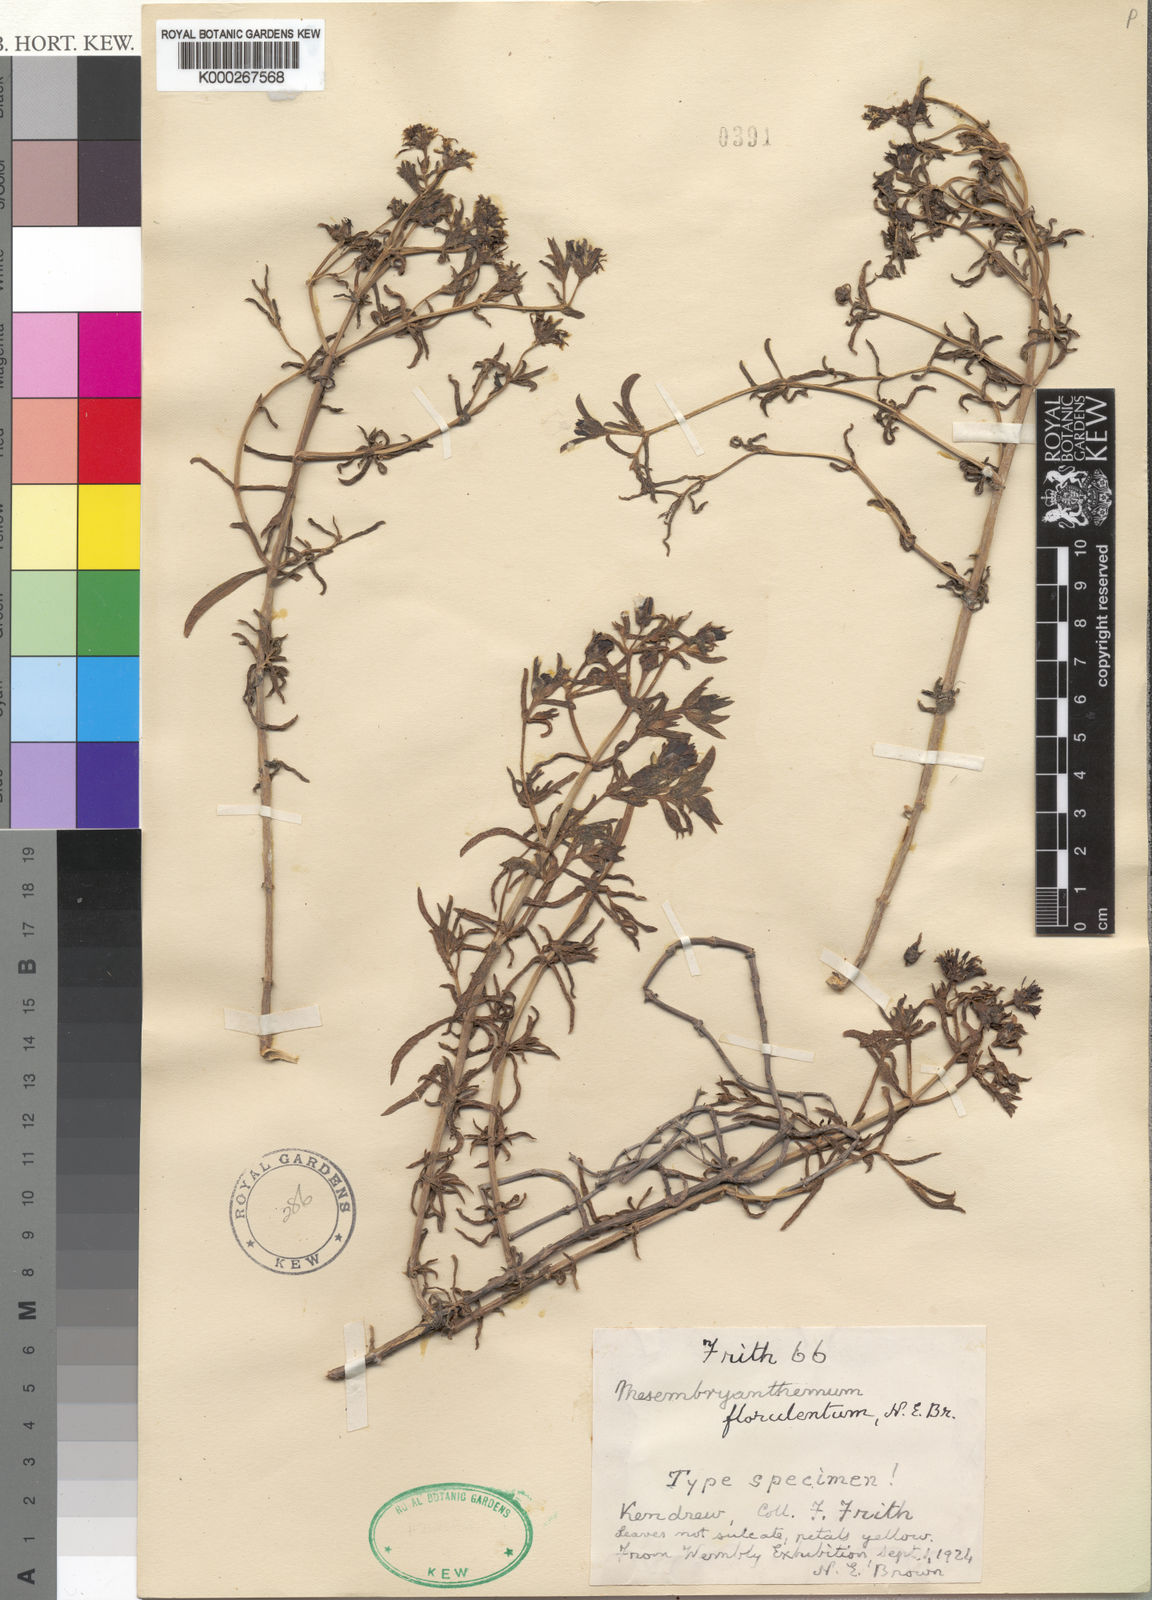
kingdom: Plantae
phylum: Tracheophyta
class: Magnoliopsida
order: Caryophyllales
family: Aizoaceae
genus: Mesembryanthemum
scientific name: Mesembryanthemum
